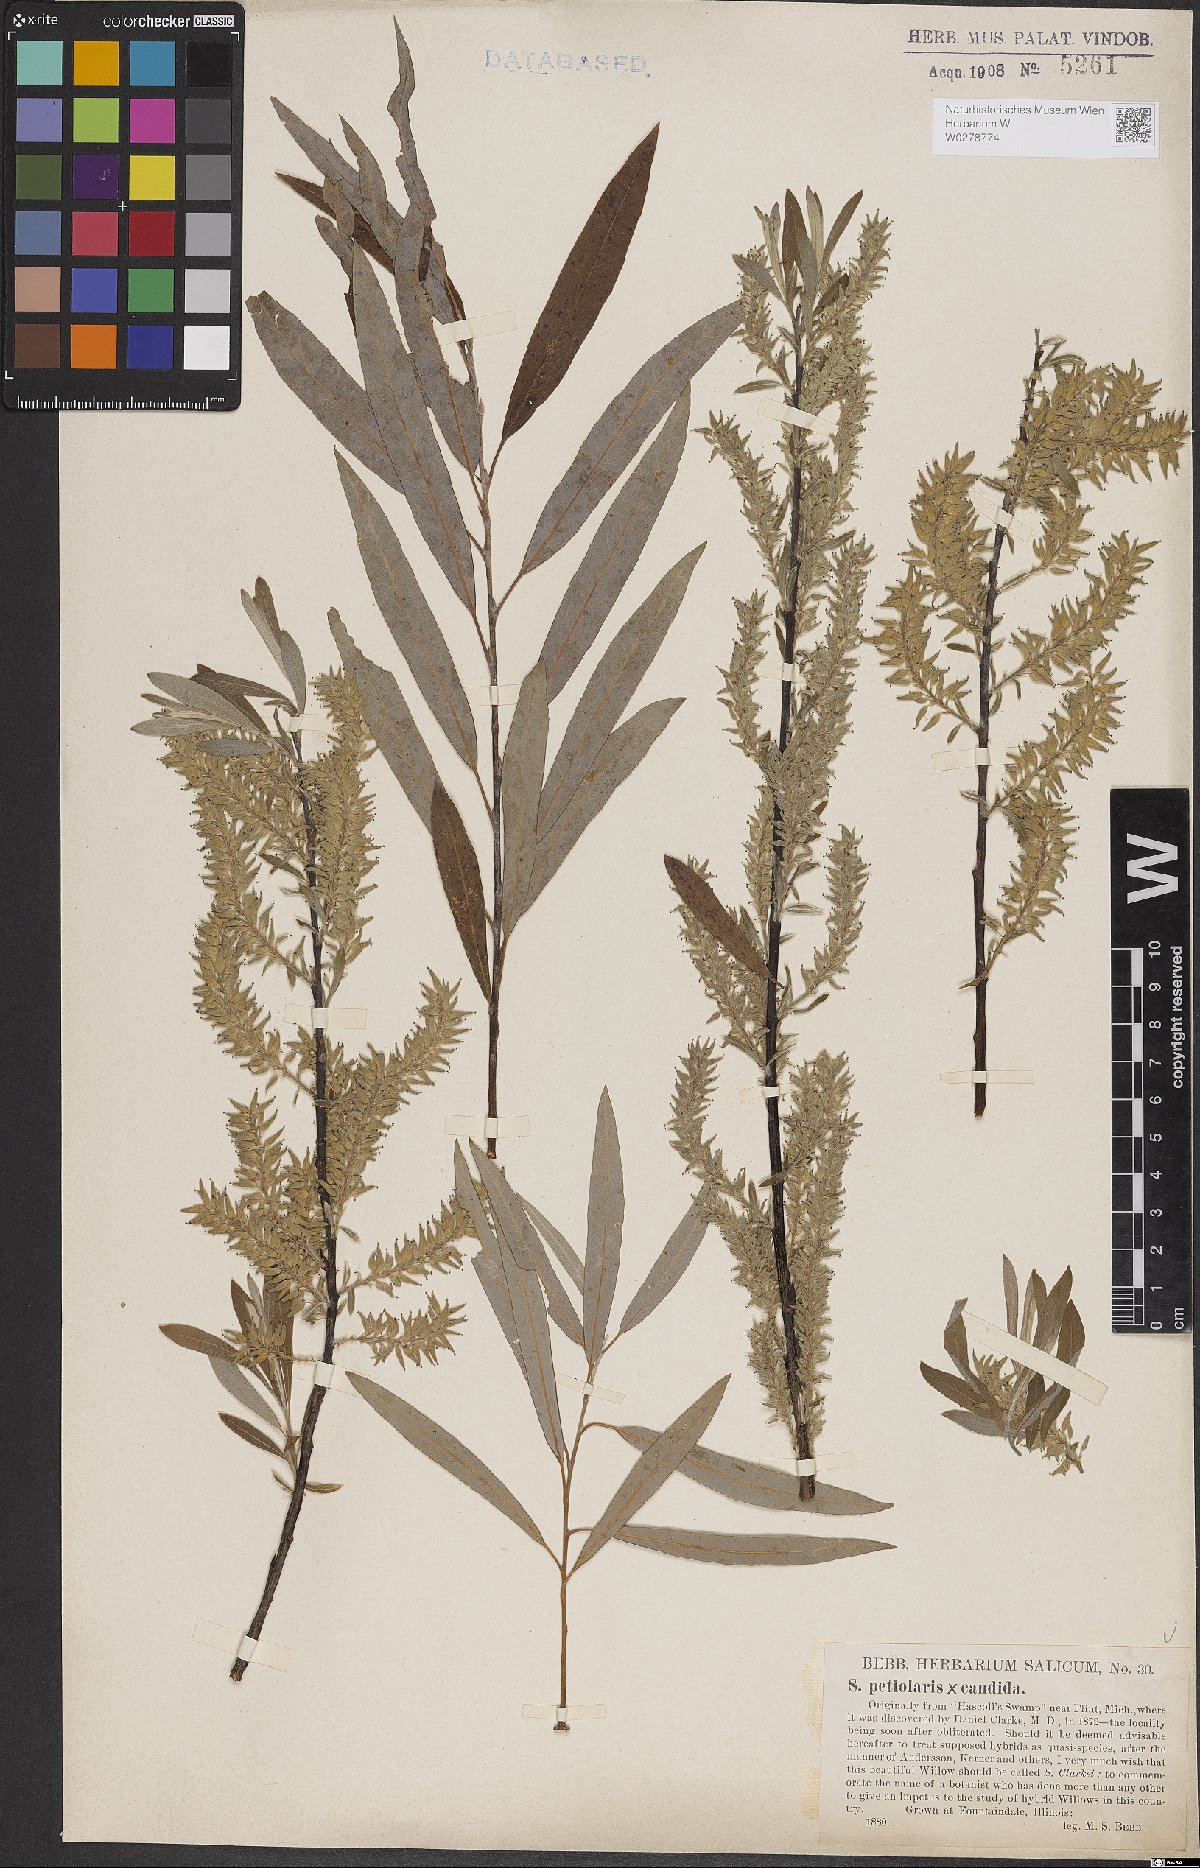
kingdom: Plantae
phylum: Tracheophyta
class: Magnoliopsida
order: Malpighiales
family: Salicaceae
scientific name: Salicaceae
